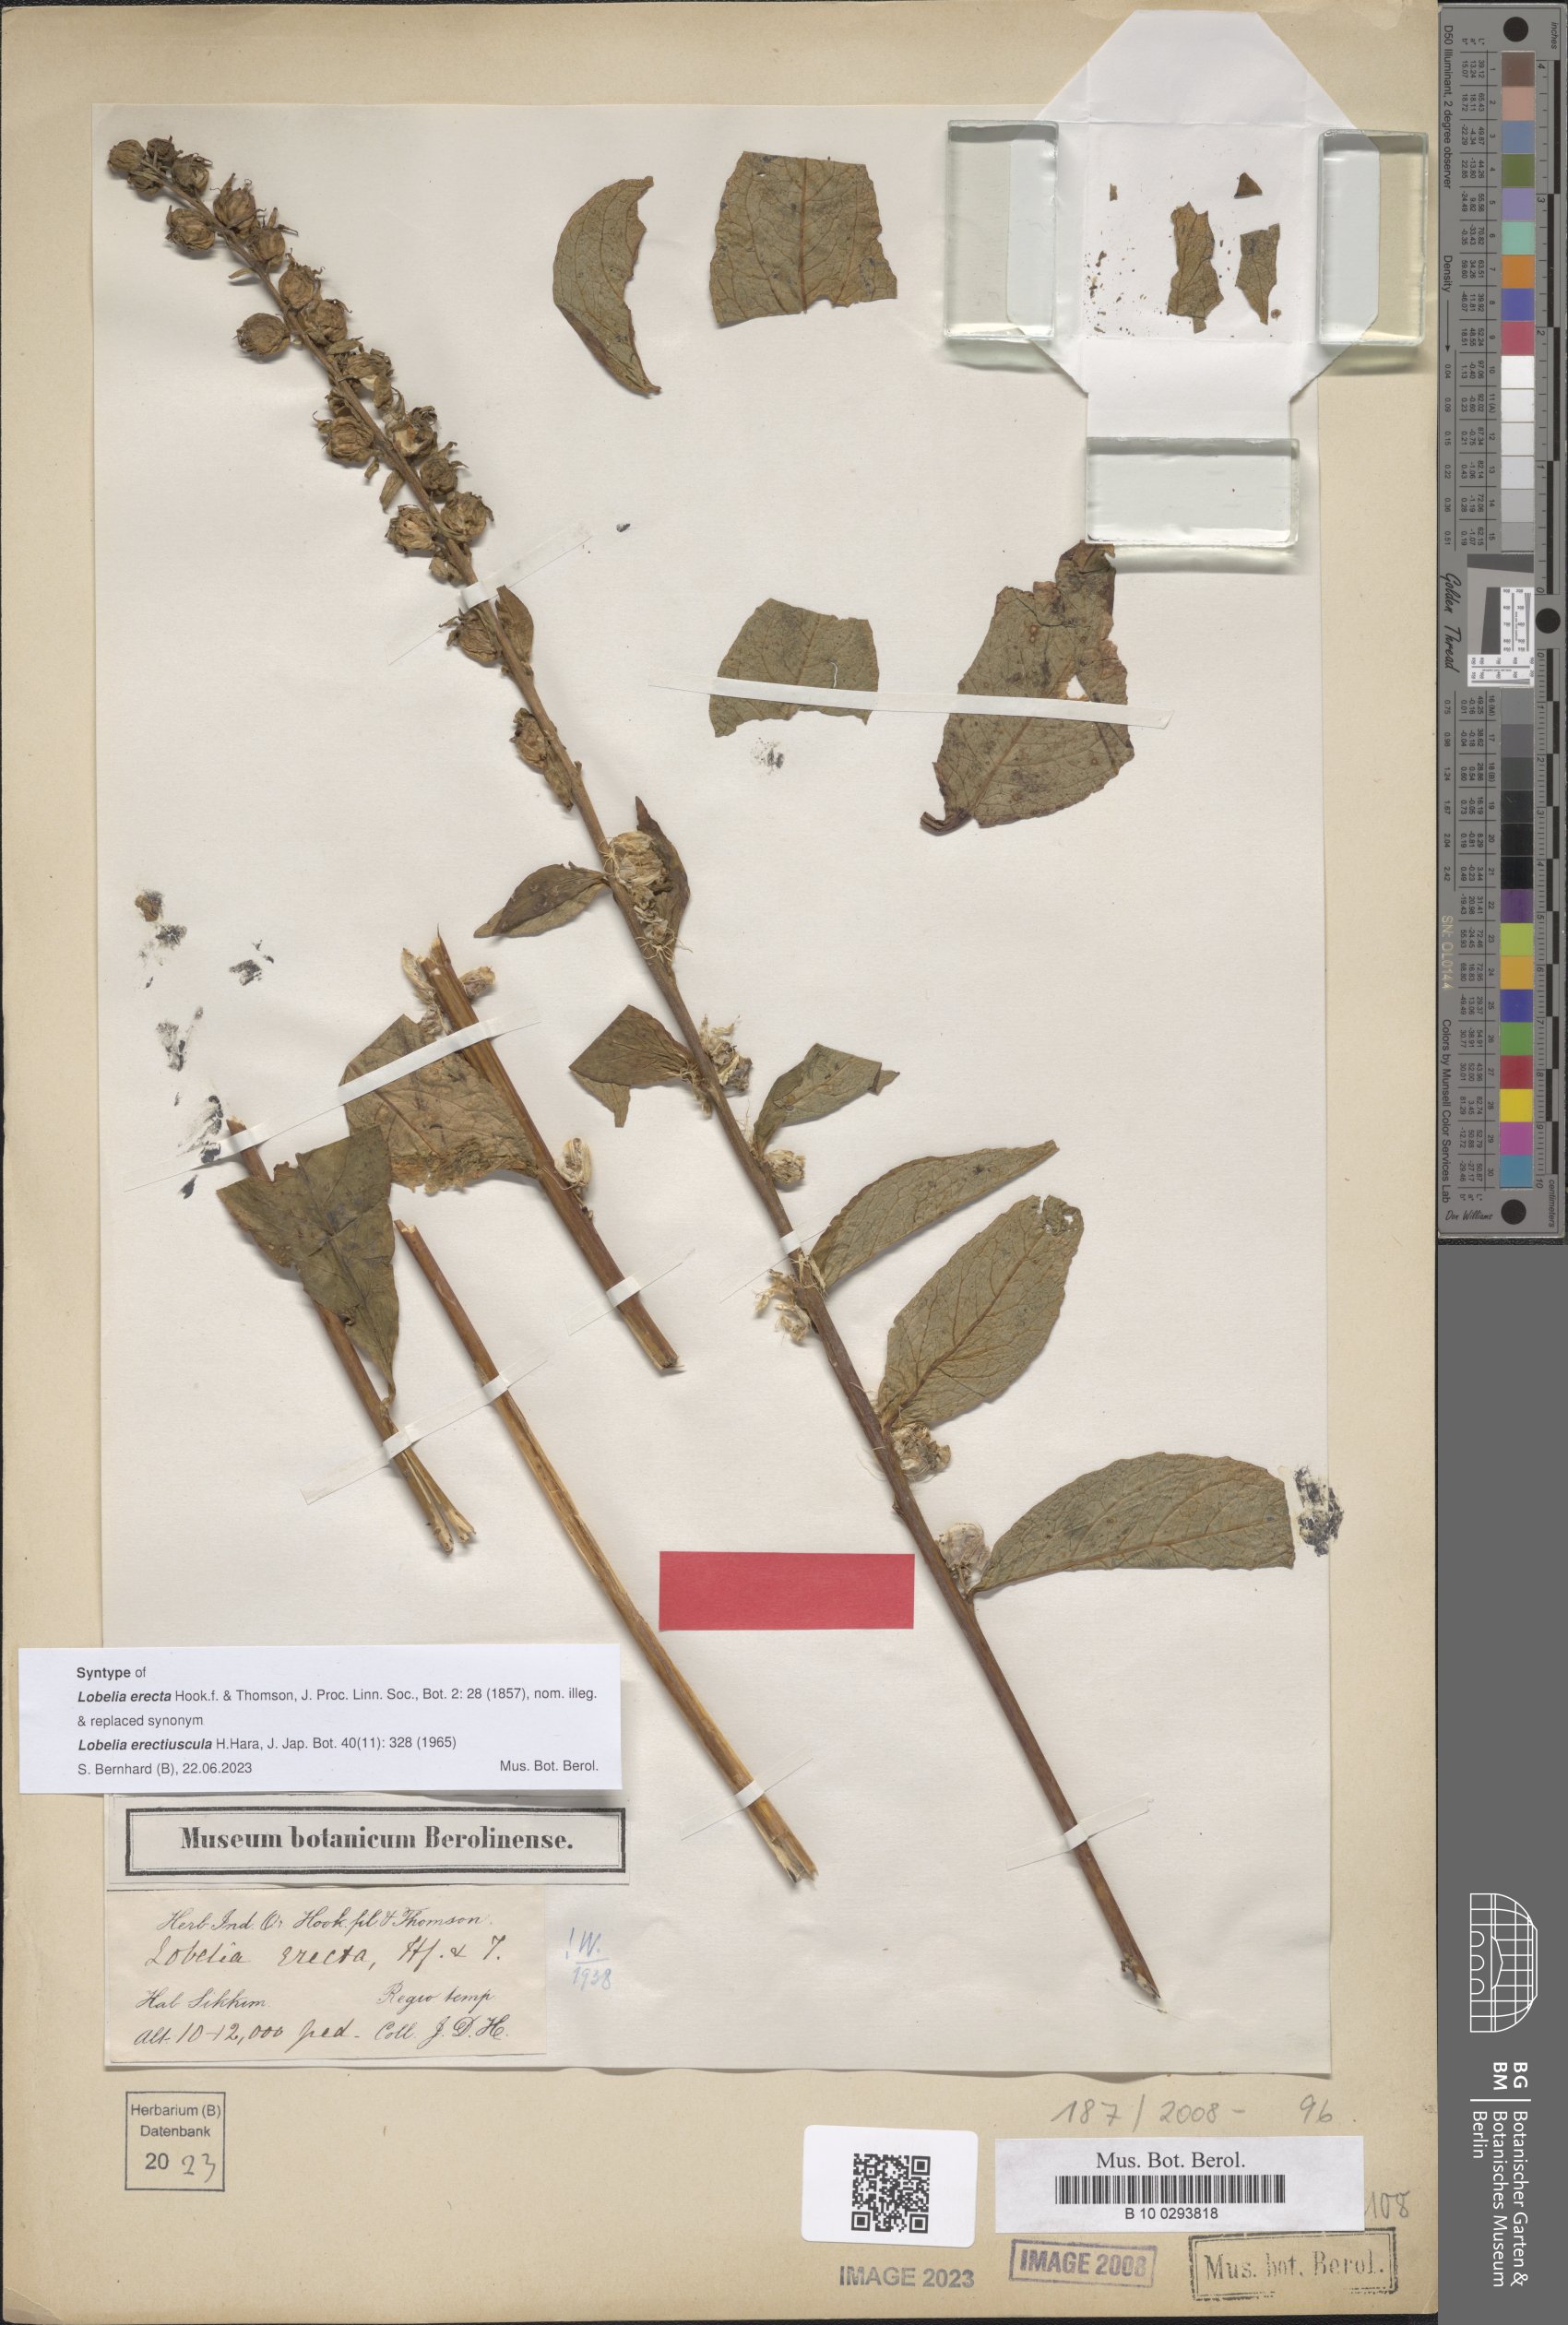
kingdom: Plantae
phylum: Tracheophyta
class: Magnoliopsida
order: Asterales
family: Campanulaceae
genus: Lobelia
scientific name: Lobelia erectiuscula
